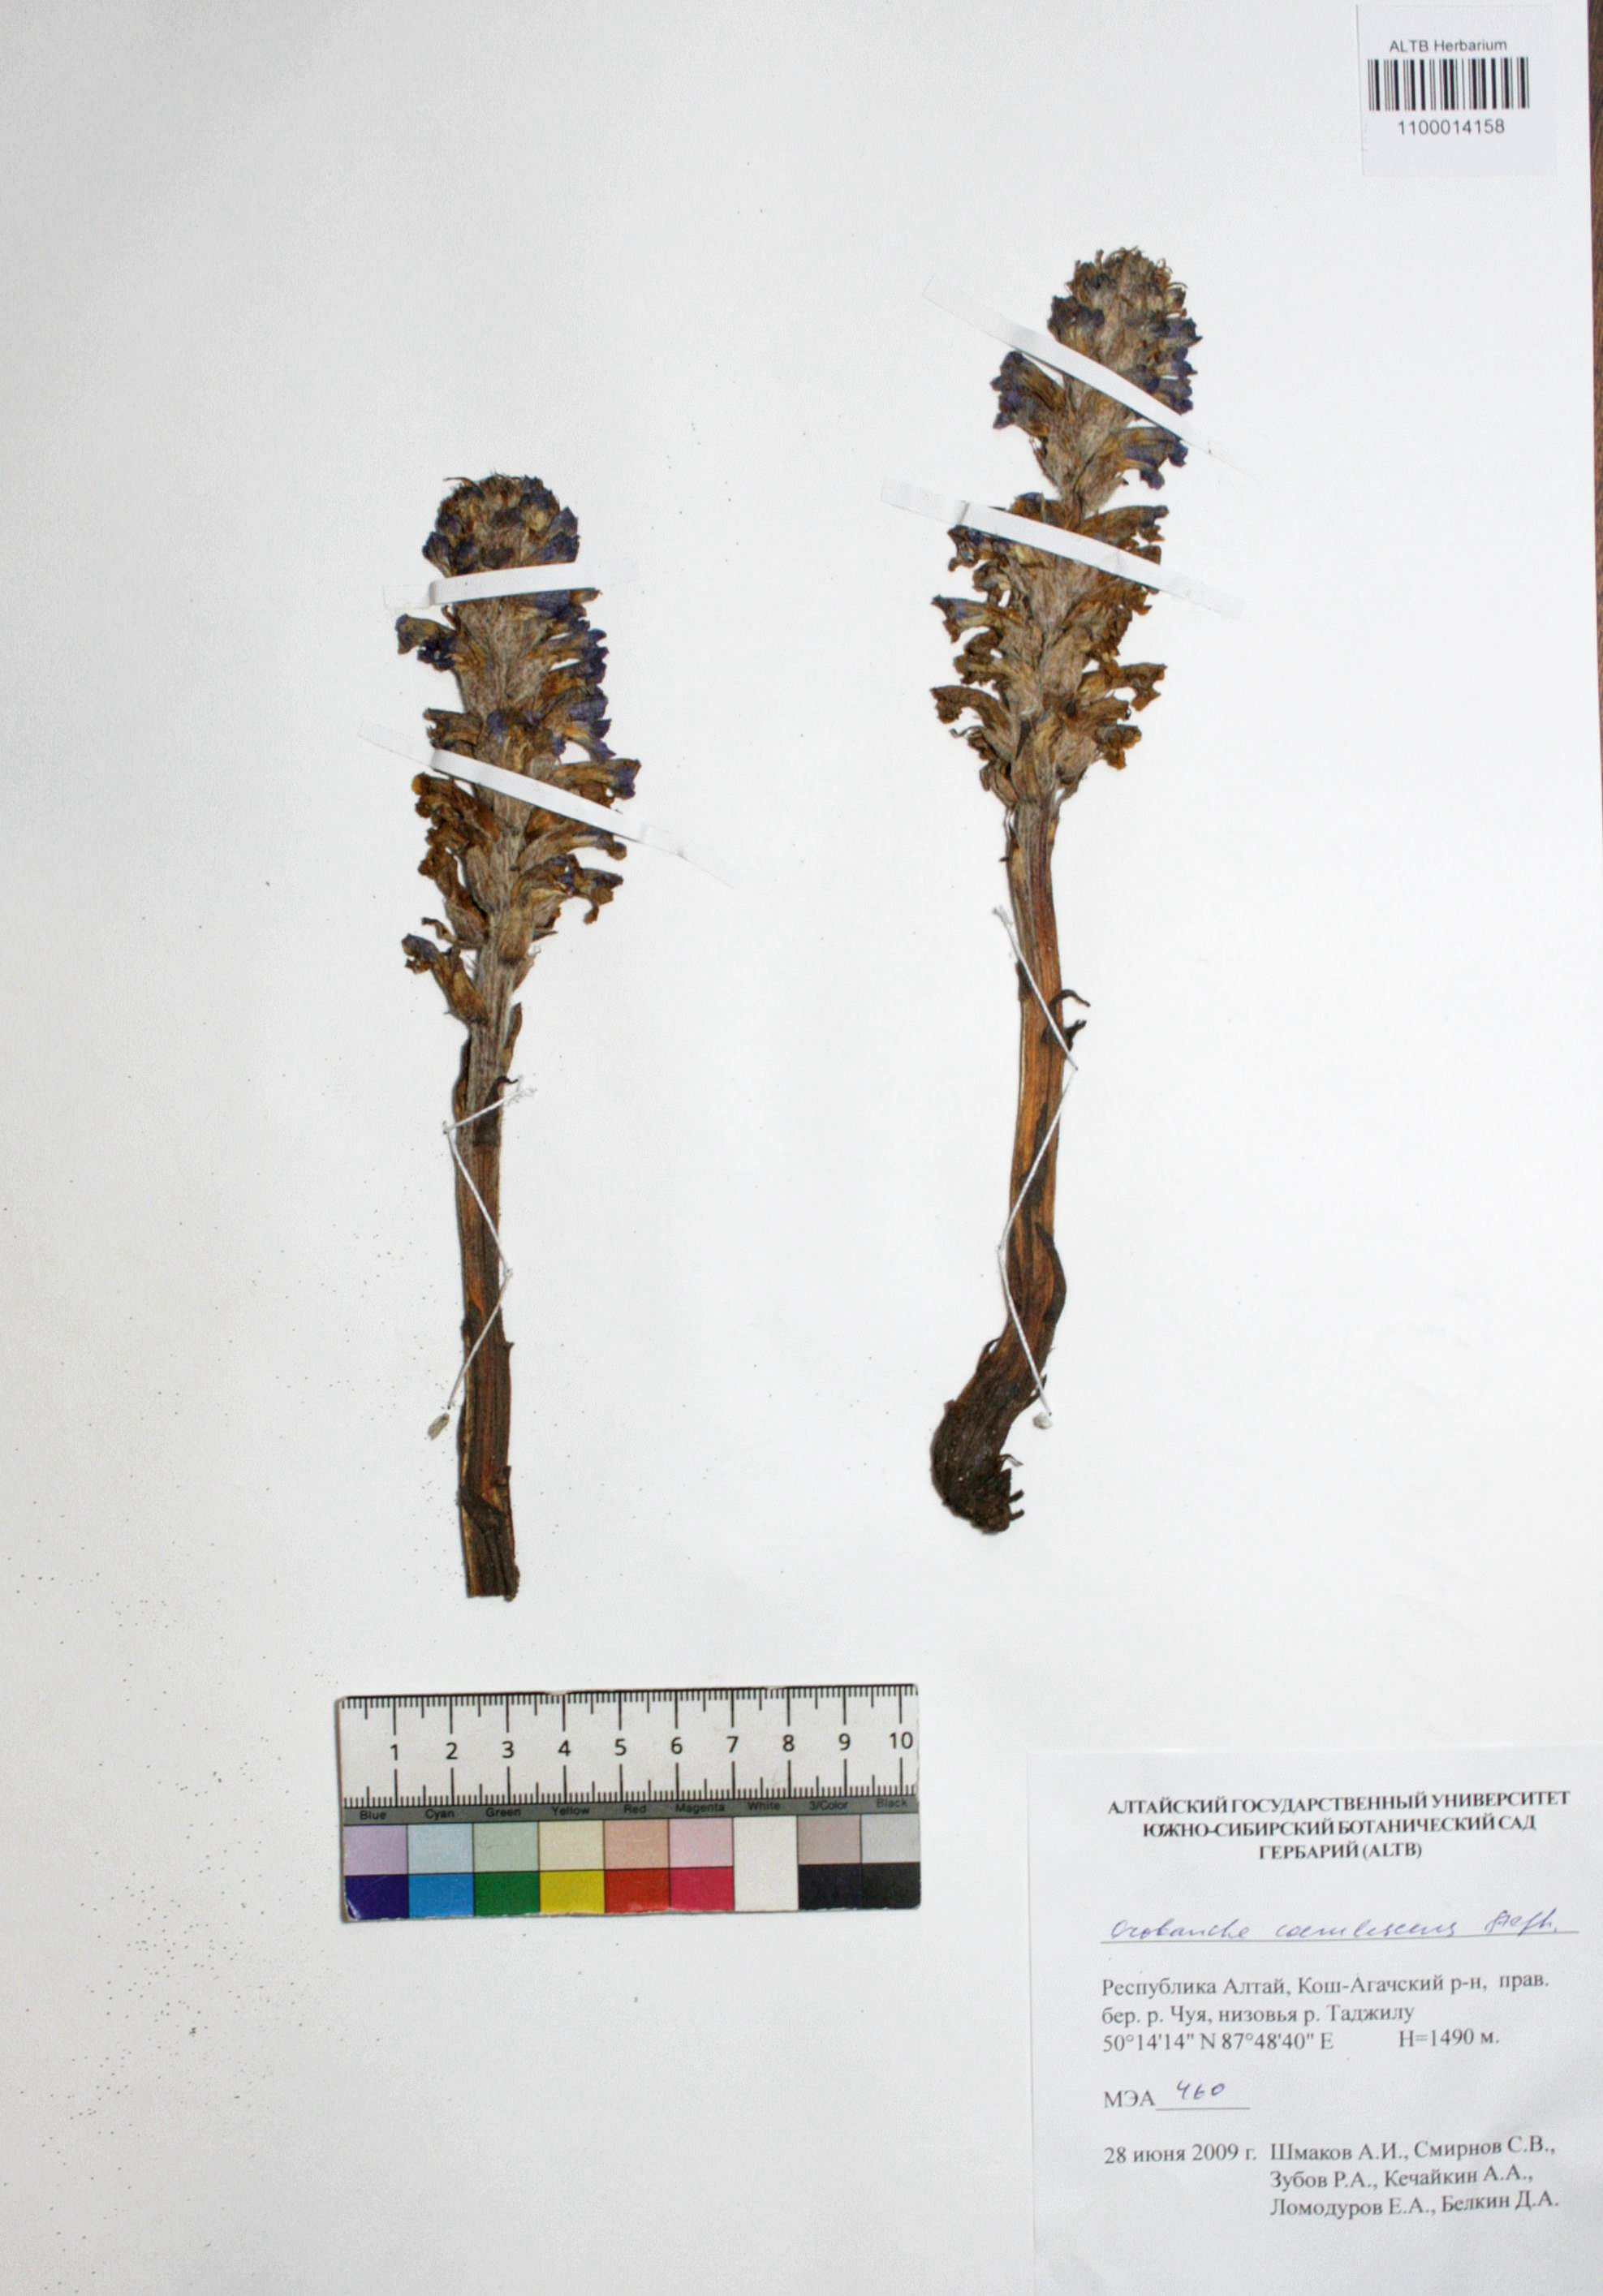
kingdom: Plantae
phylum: Tracheophyta
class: Magnoliopsida
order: Lamiales
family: Orobanchaceae
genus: Orobanche
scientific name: Orobanche coerulescens
